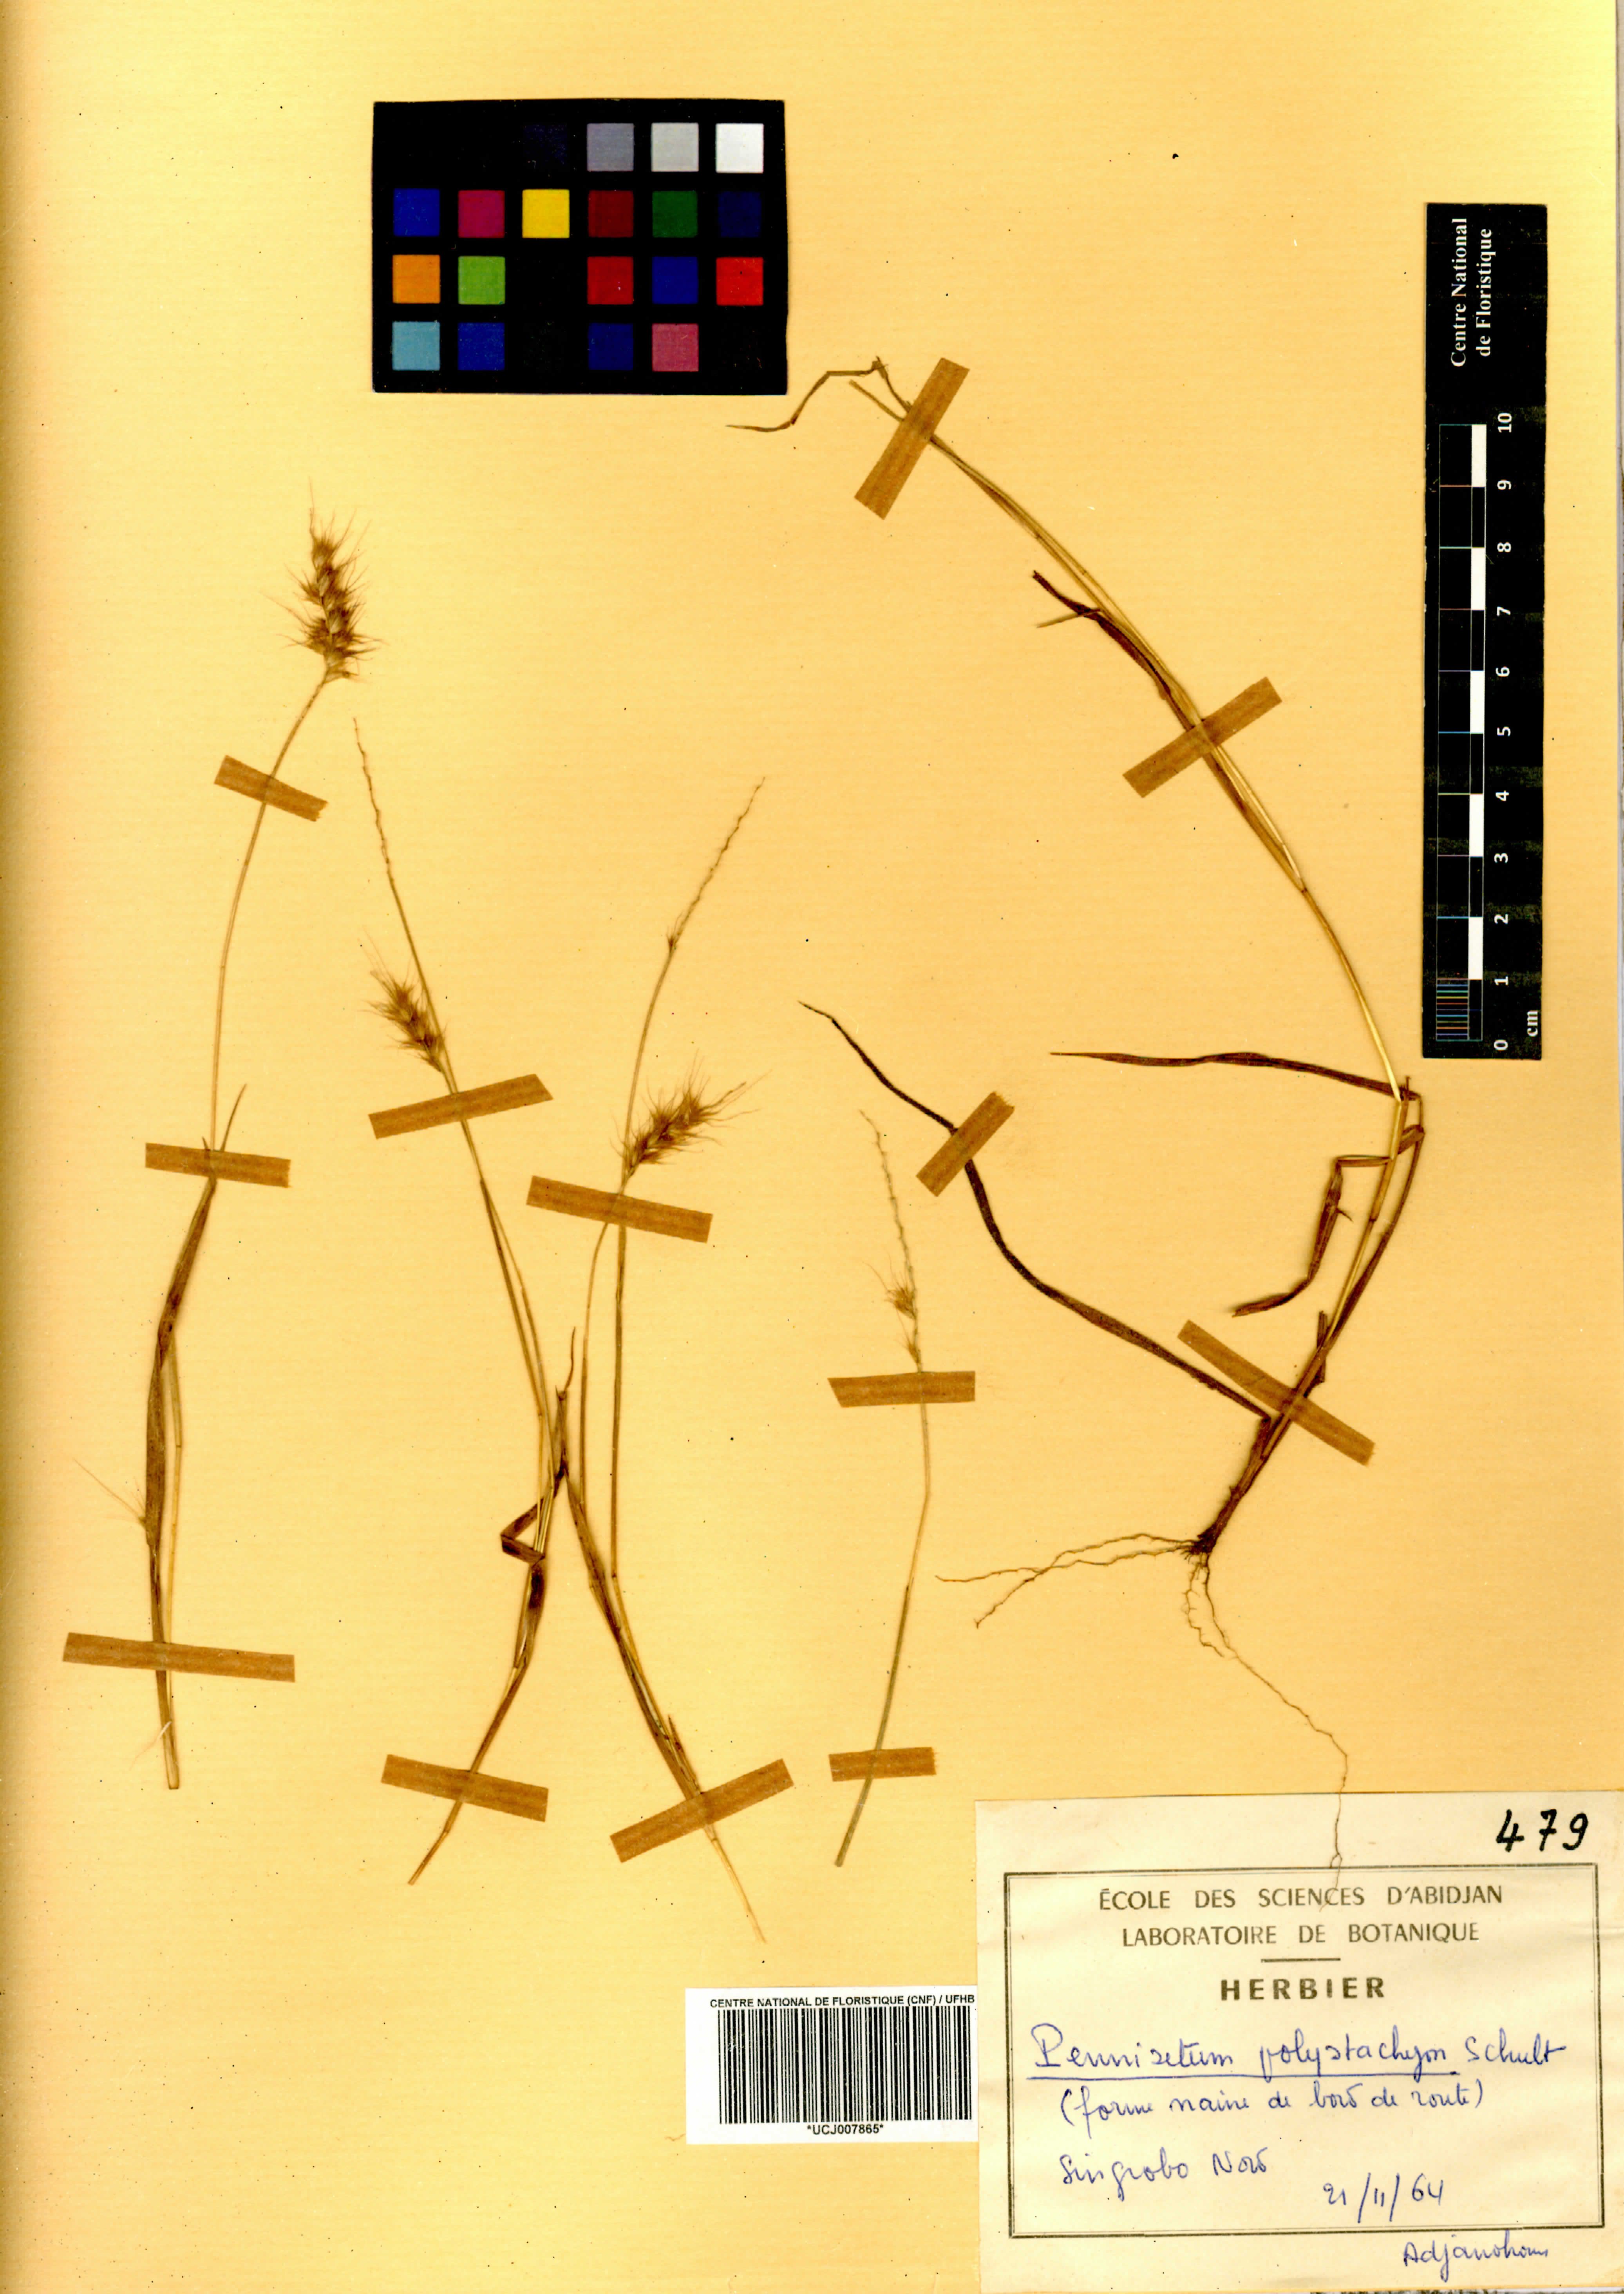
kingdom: Plantae
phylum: Tracheophyta
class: Liliopsida
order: Poales
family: Poaceae
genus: Setaria
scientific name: Setaria parviflora
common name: Knotroot bristle-grass
